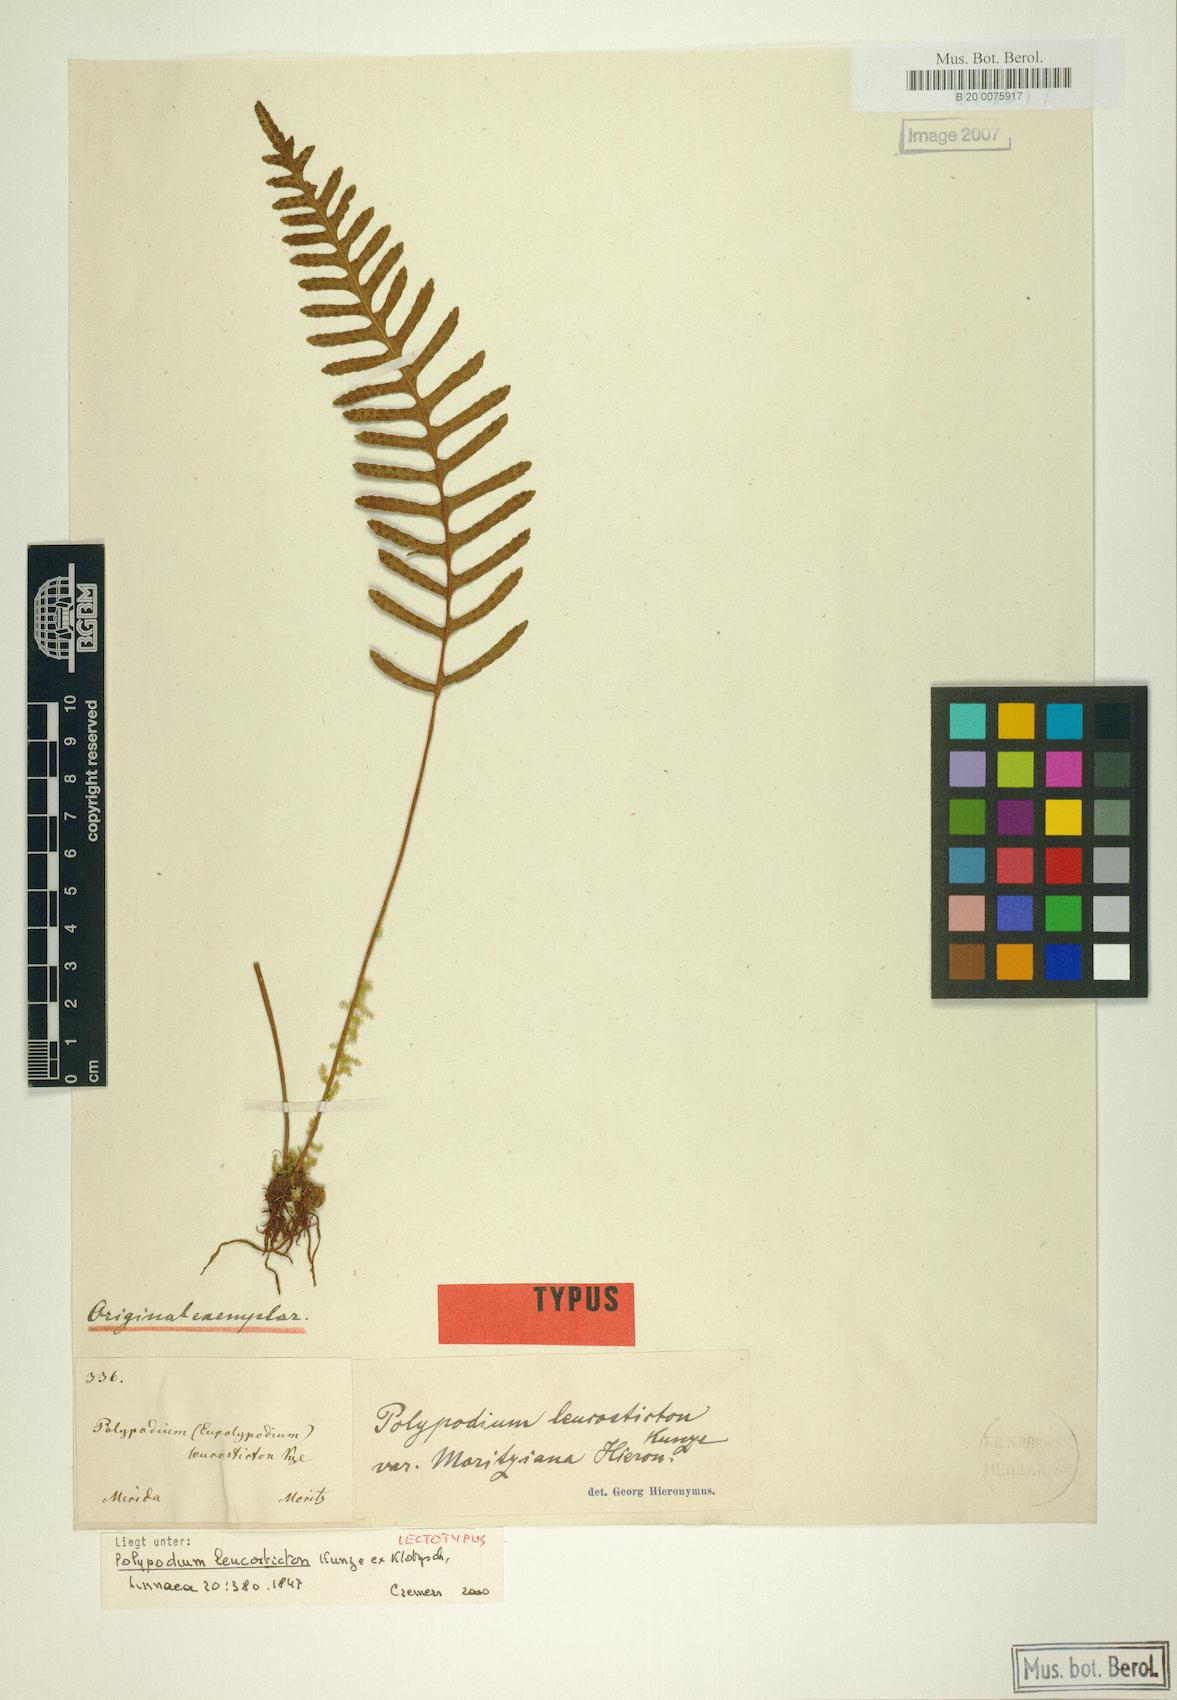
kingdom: Plantae
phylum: Tracheophyta
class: Polypodiopsida
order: Polypodiales
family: Polypodiaceae
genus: Pleopeltis
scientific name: Pleopeltis remota
